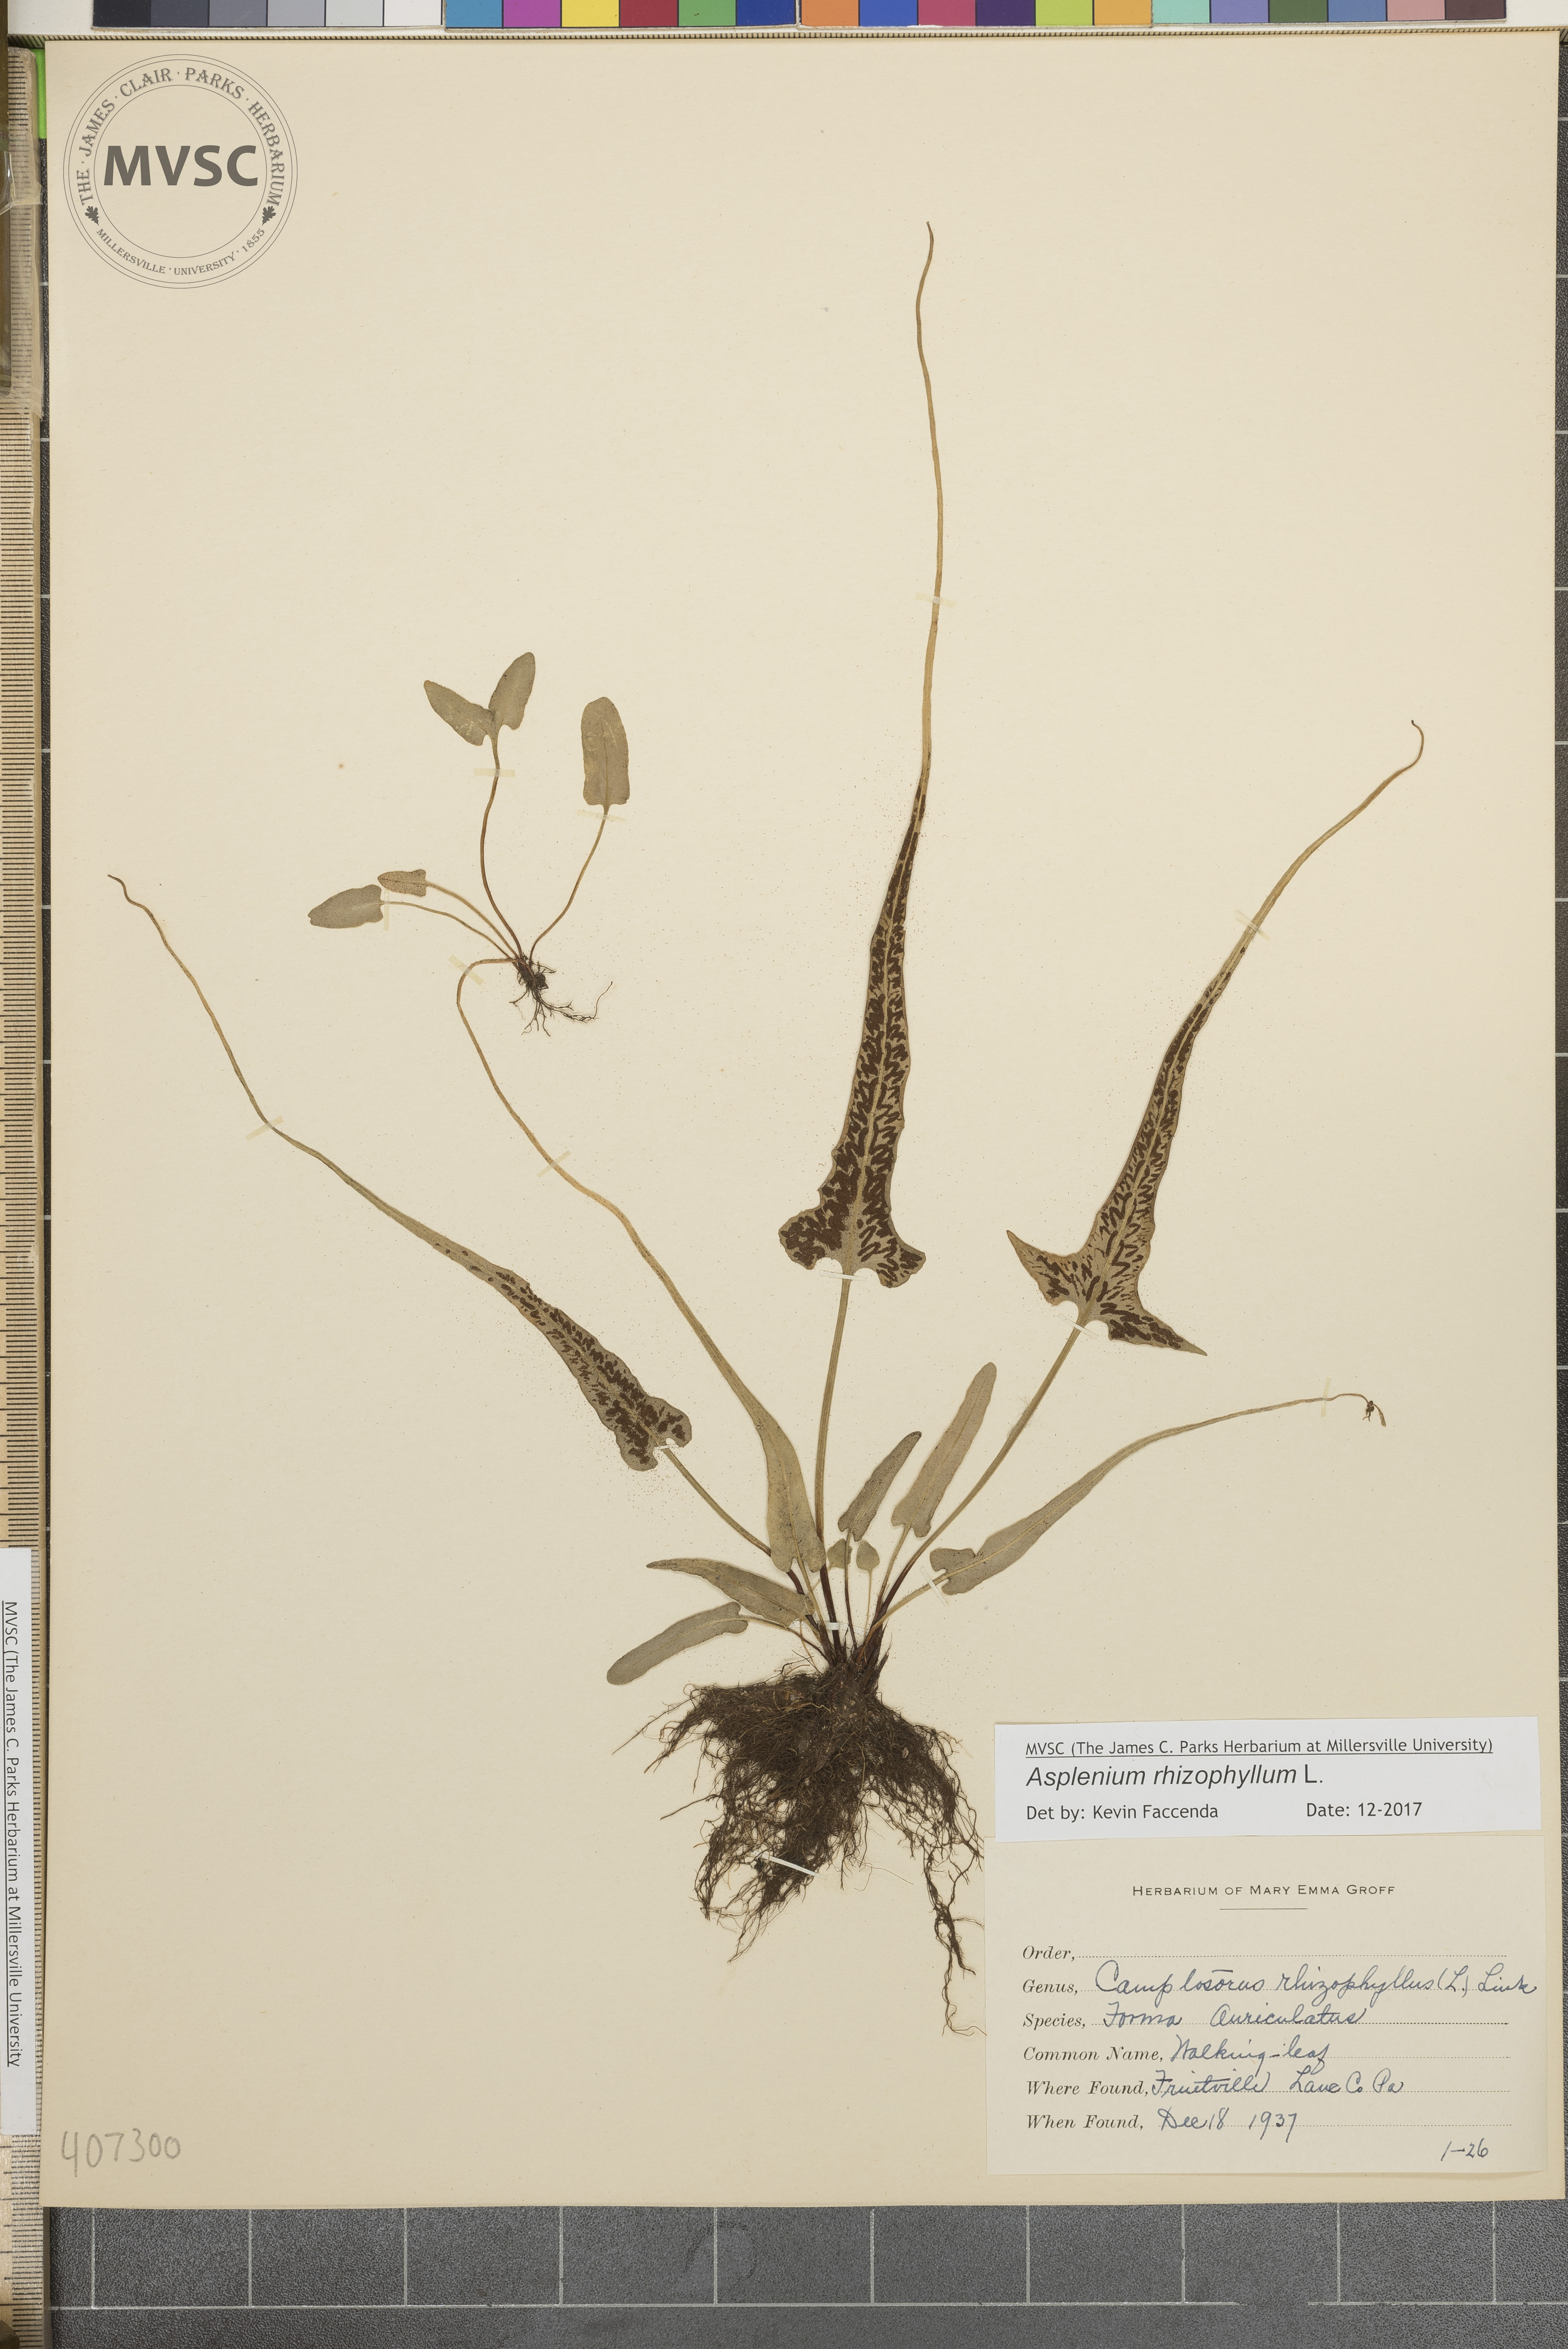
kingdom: Plantae
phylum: Tracheophyta
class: Polypodiopsida
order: Polypodiales
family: Aspleniaceae
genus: Asplenium
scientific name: Asplenium rhizophyllum
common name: Walking fern
